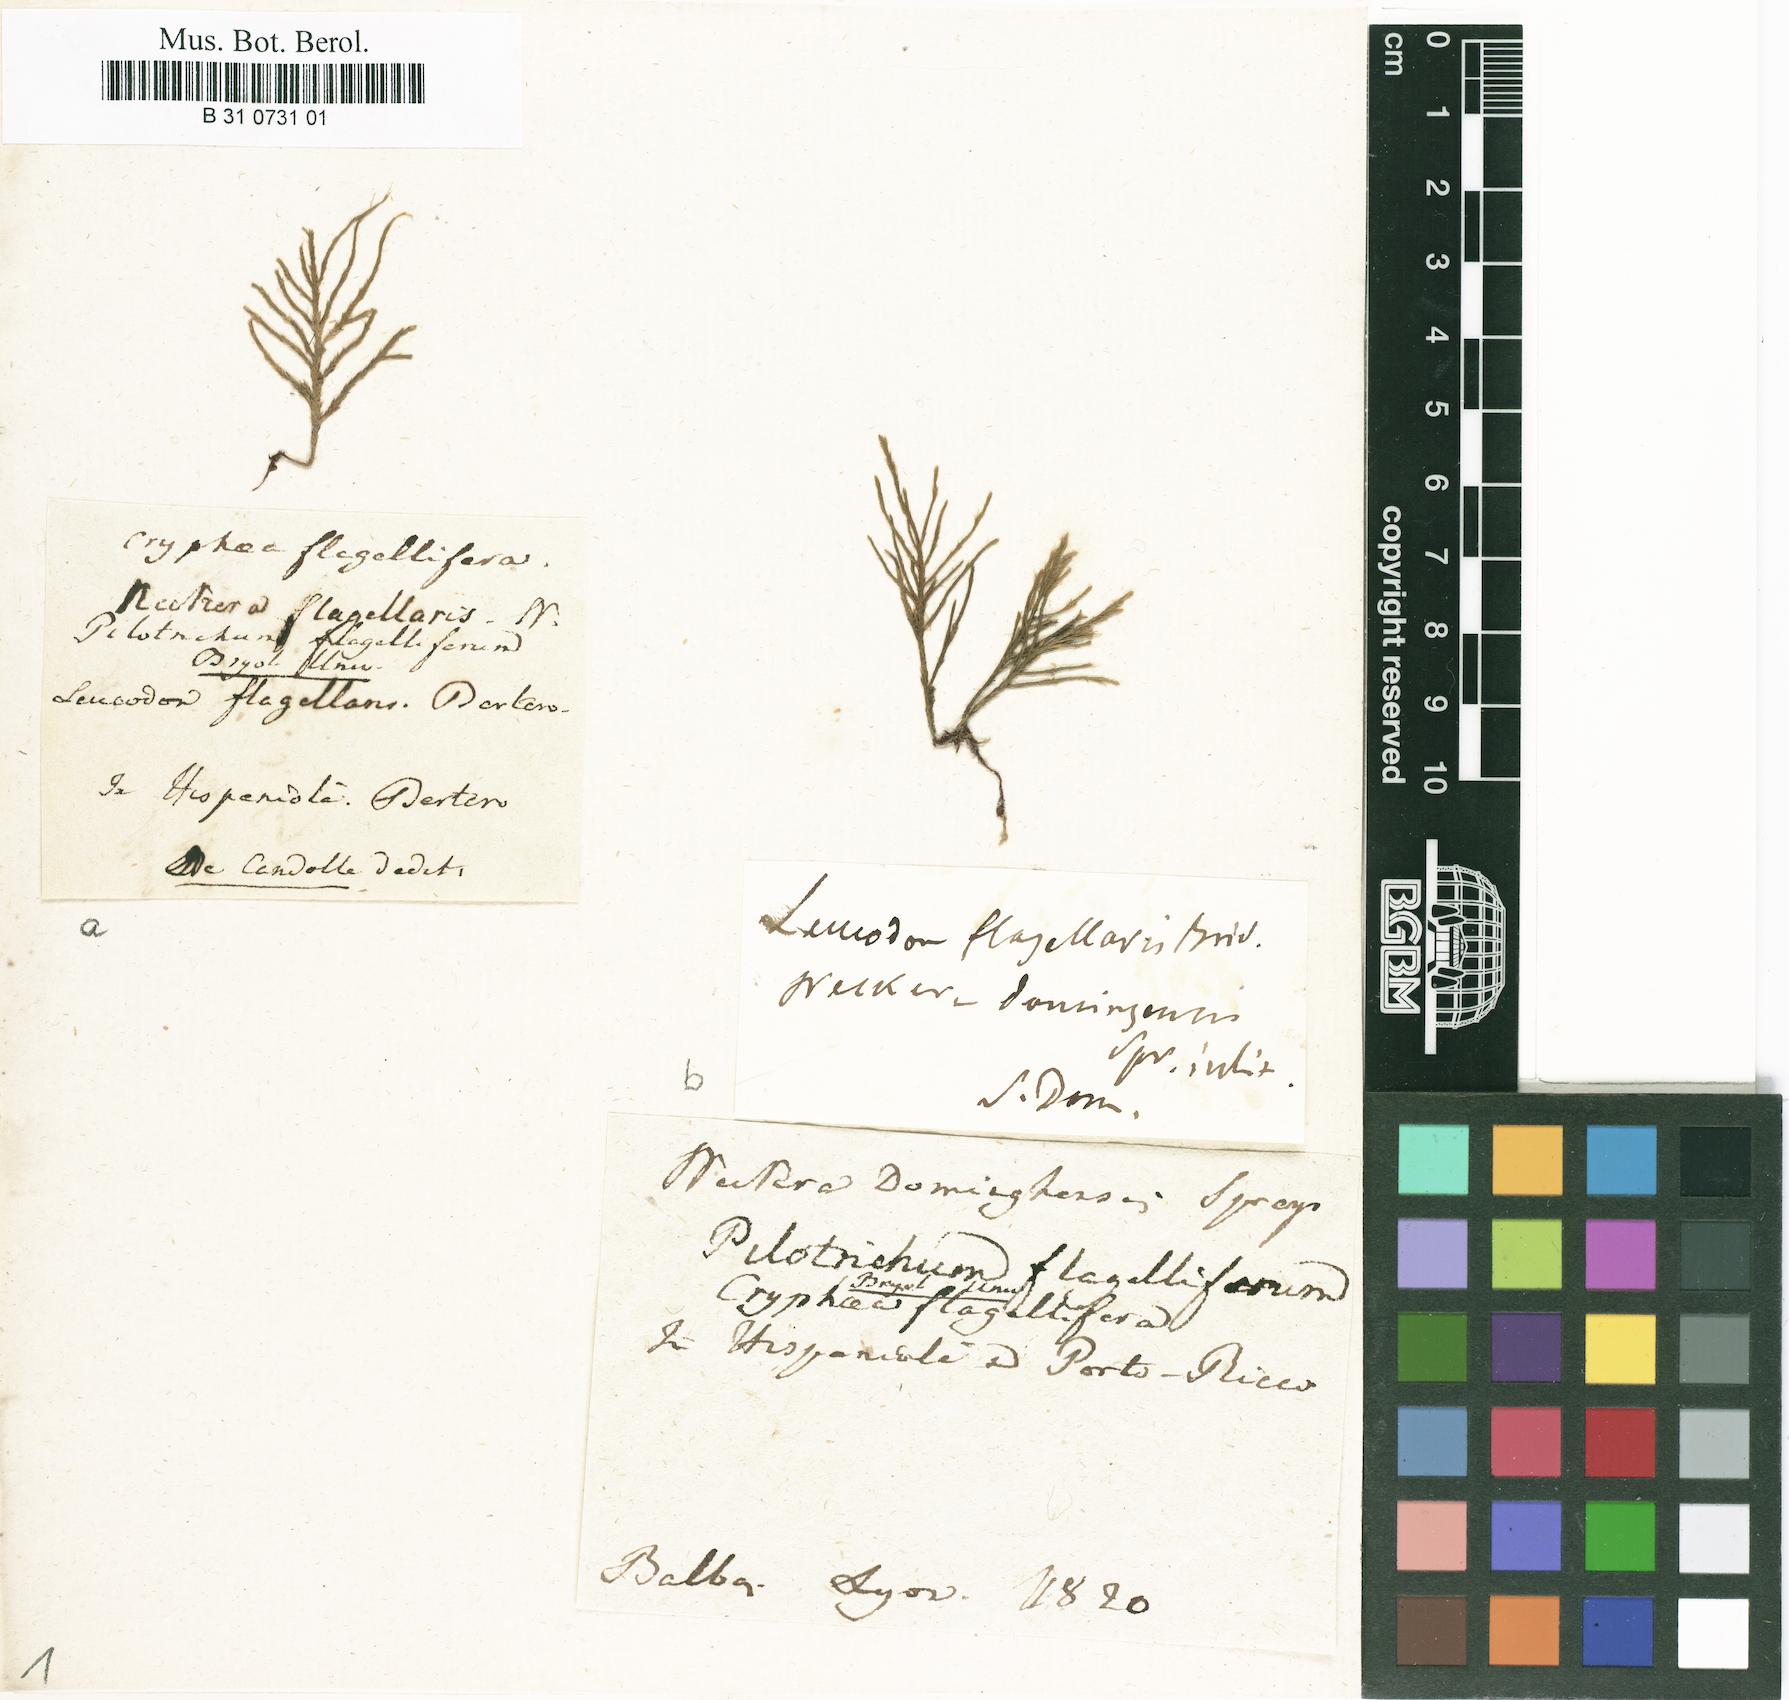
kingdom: Plantae
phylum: Bryophyta
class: Bryopsida
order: Hypnales
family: Rutenbergiaceae
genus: Pseudocryphaea
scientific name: Pseudocryphaea domingensis
